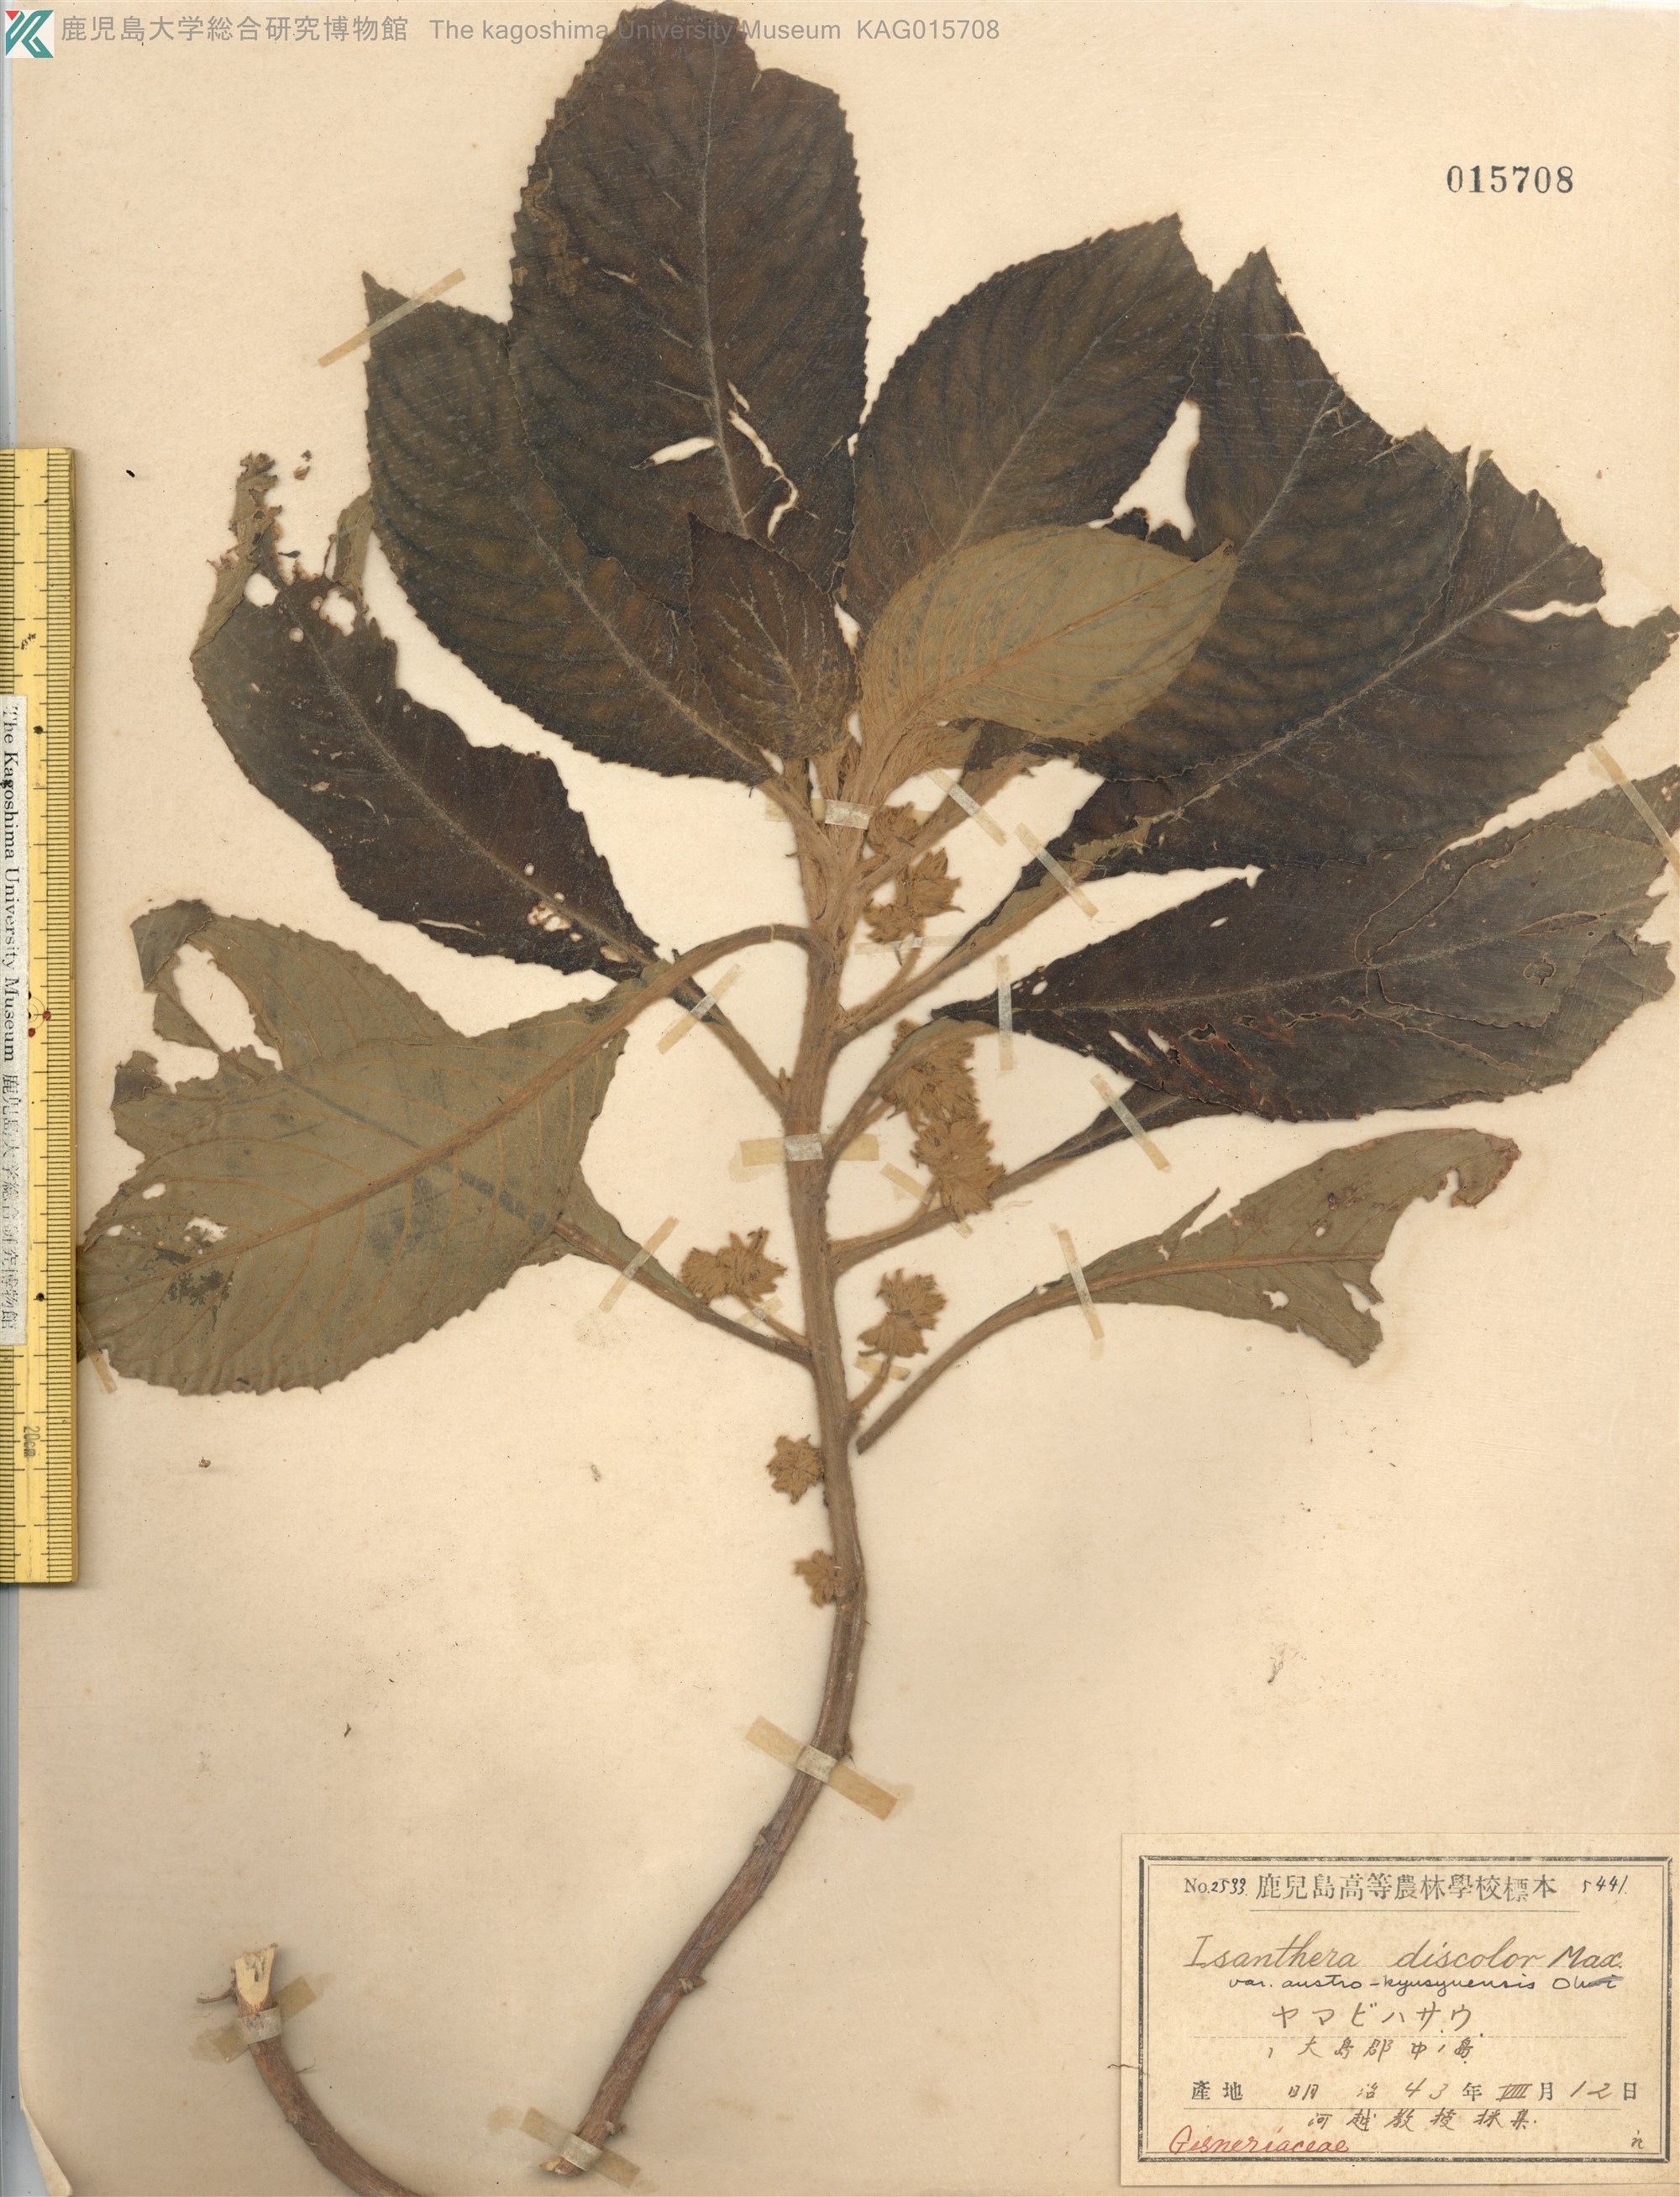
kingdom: Plantae
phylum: Tracheophyta
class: Magnoliopsida
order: Lamiales
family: Gesneriaceae
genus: Rhynchotechum
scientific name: Rhynchotechum discolor
